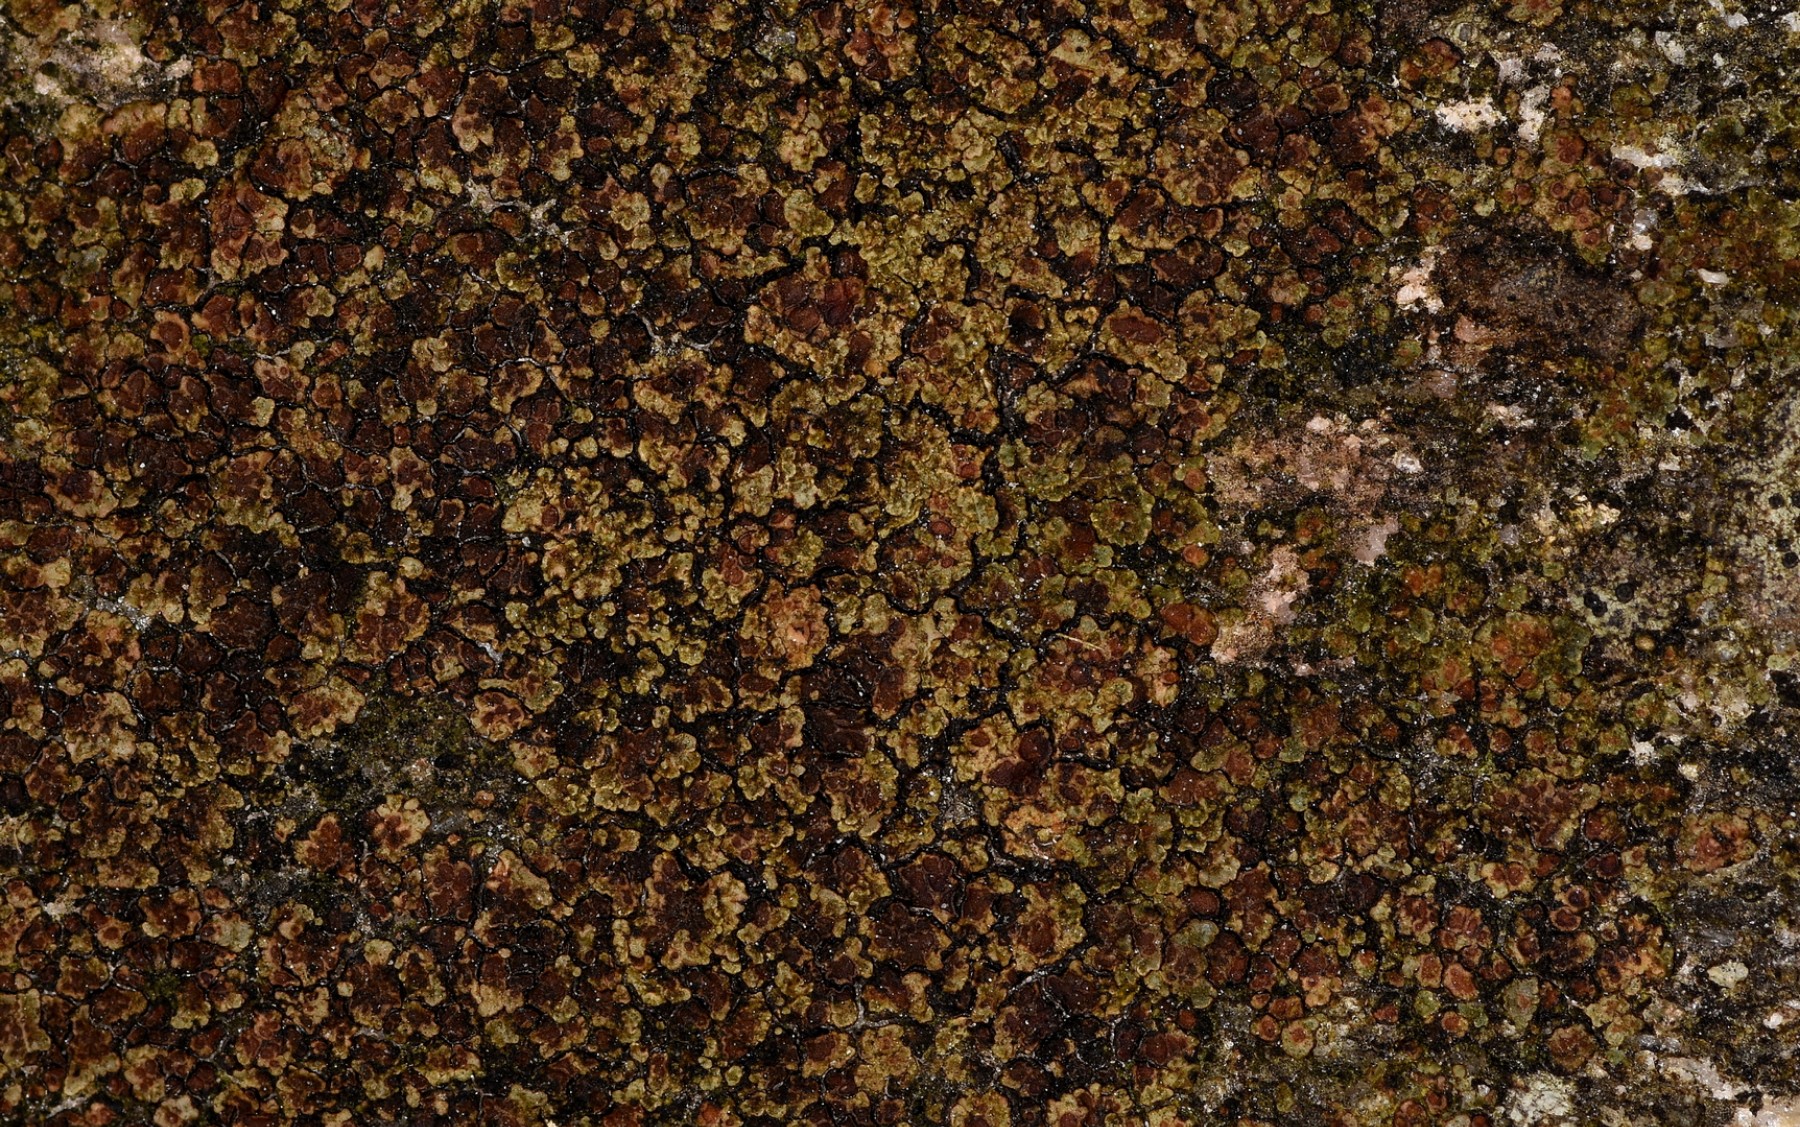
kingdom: Fungi
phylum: Ascomycota
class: Lecanoromycetes
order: Acarosporales
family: Acarosporaceae
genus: Acarospora
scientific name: Acarospora fuscata
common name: brun småsporelav
